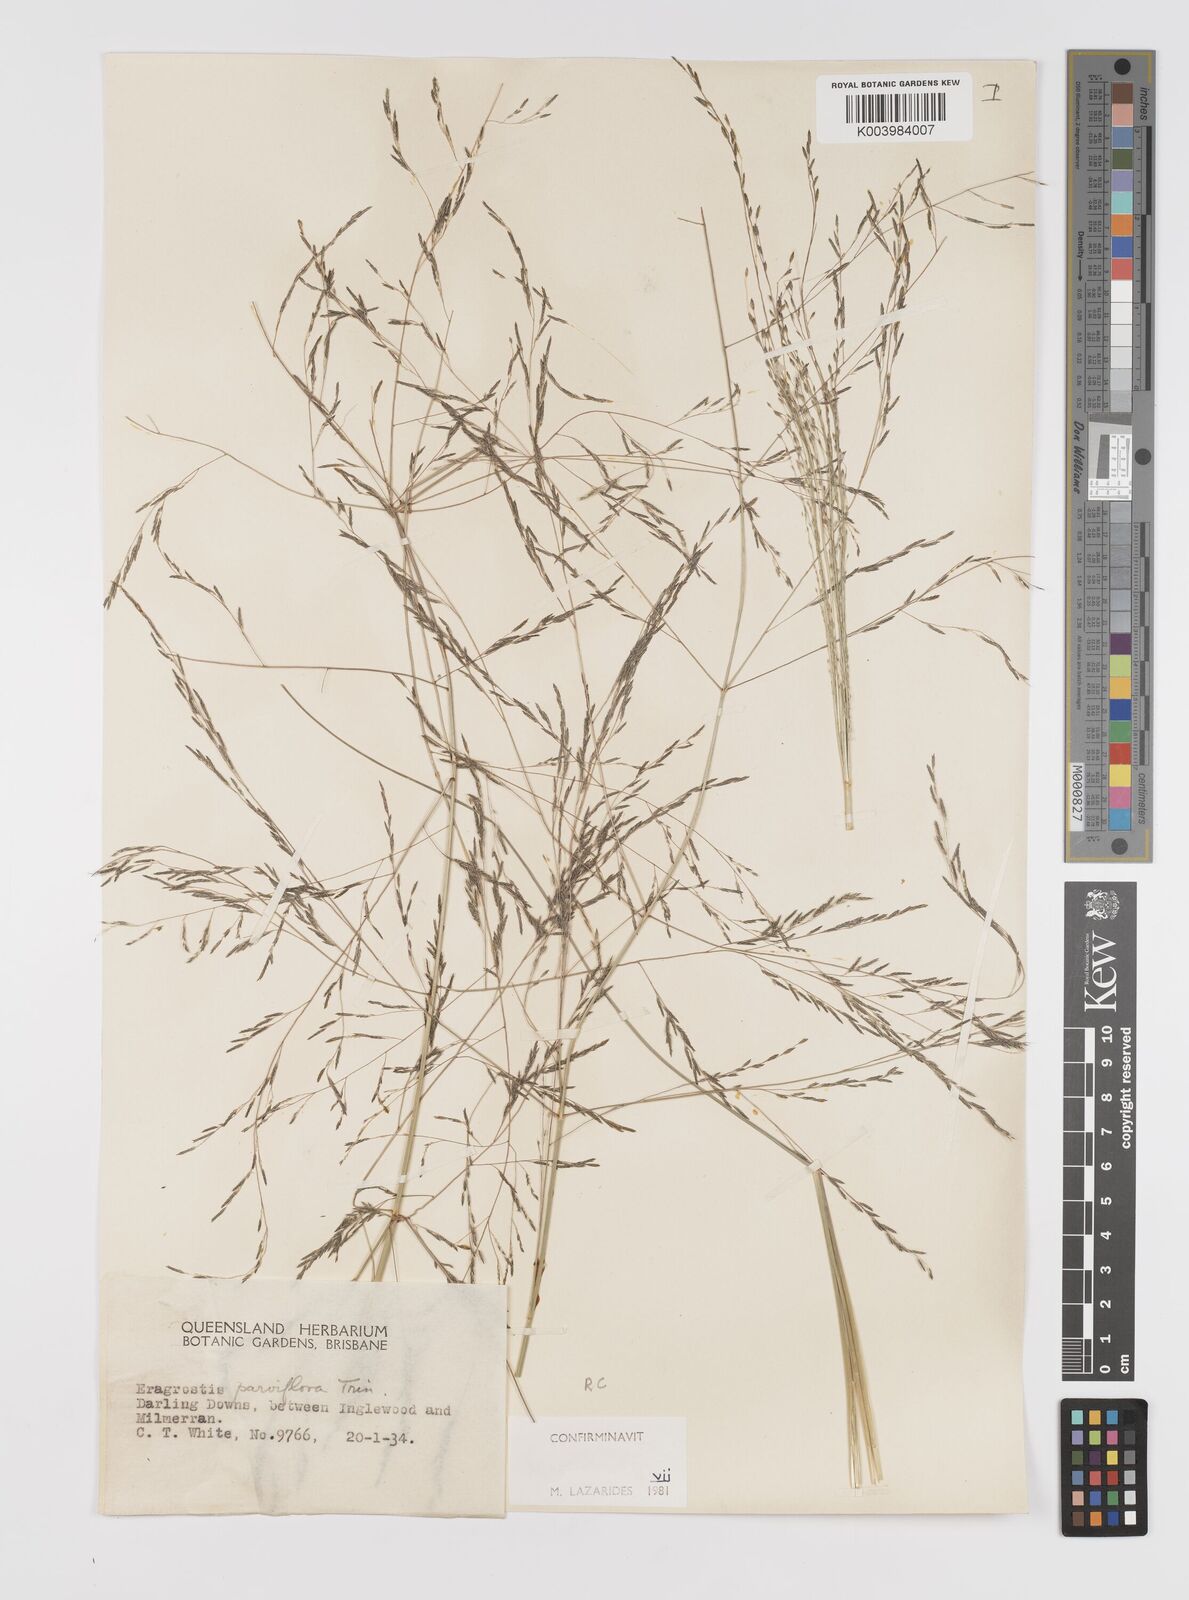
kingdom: Plantae
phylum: Tracheophyta
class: Liliopsida
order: Poales
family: Poaceae
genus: Eragrostis
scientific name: Eragrostis parviflora
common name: Weeping love-grass
